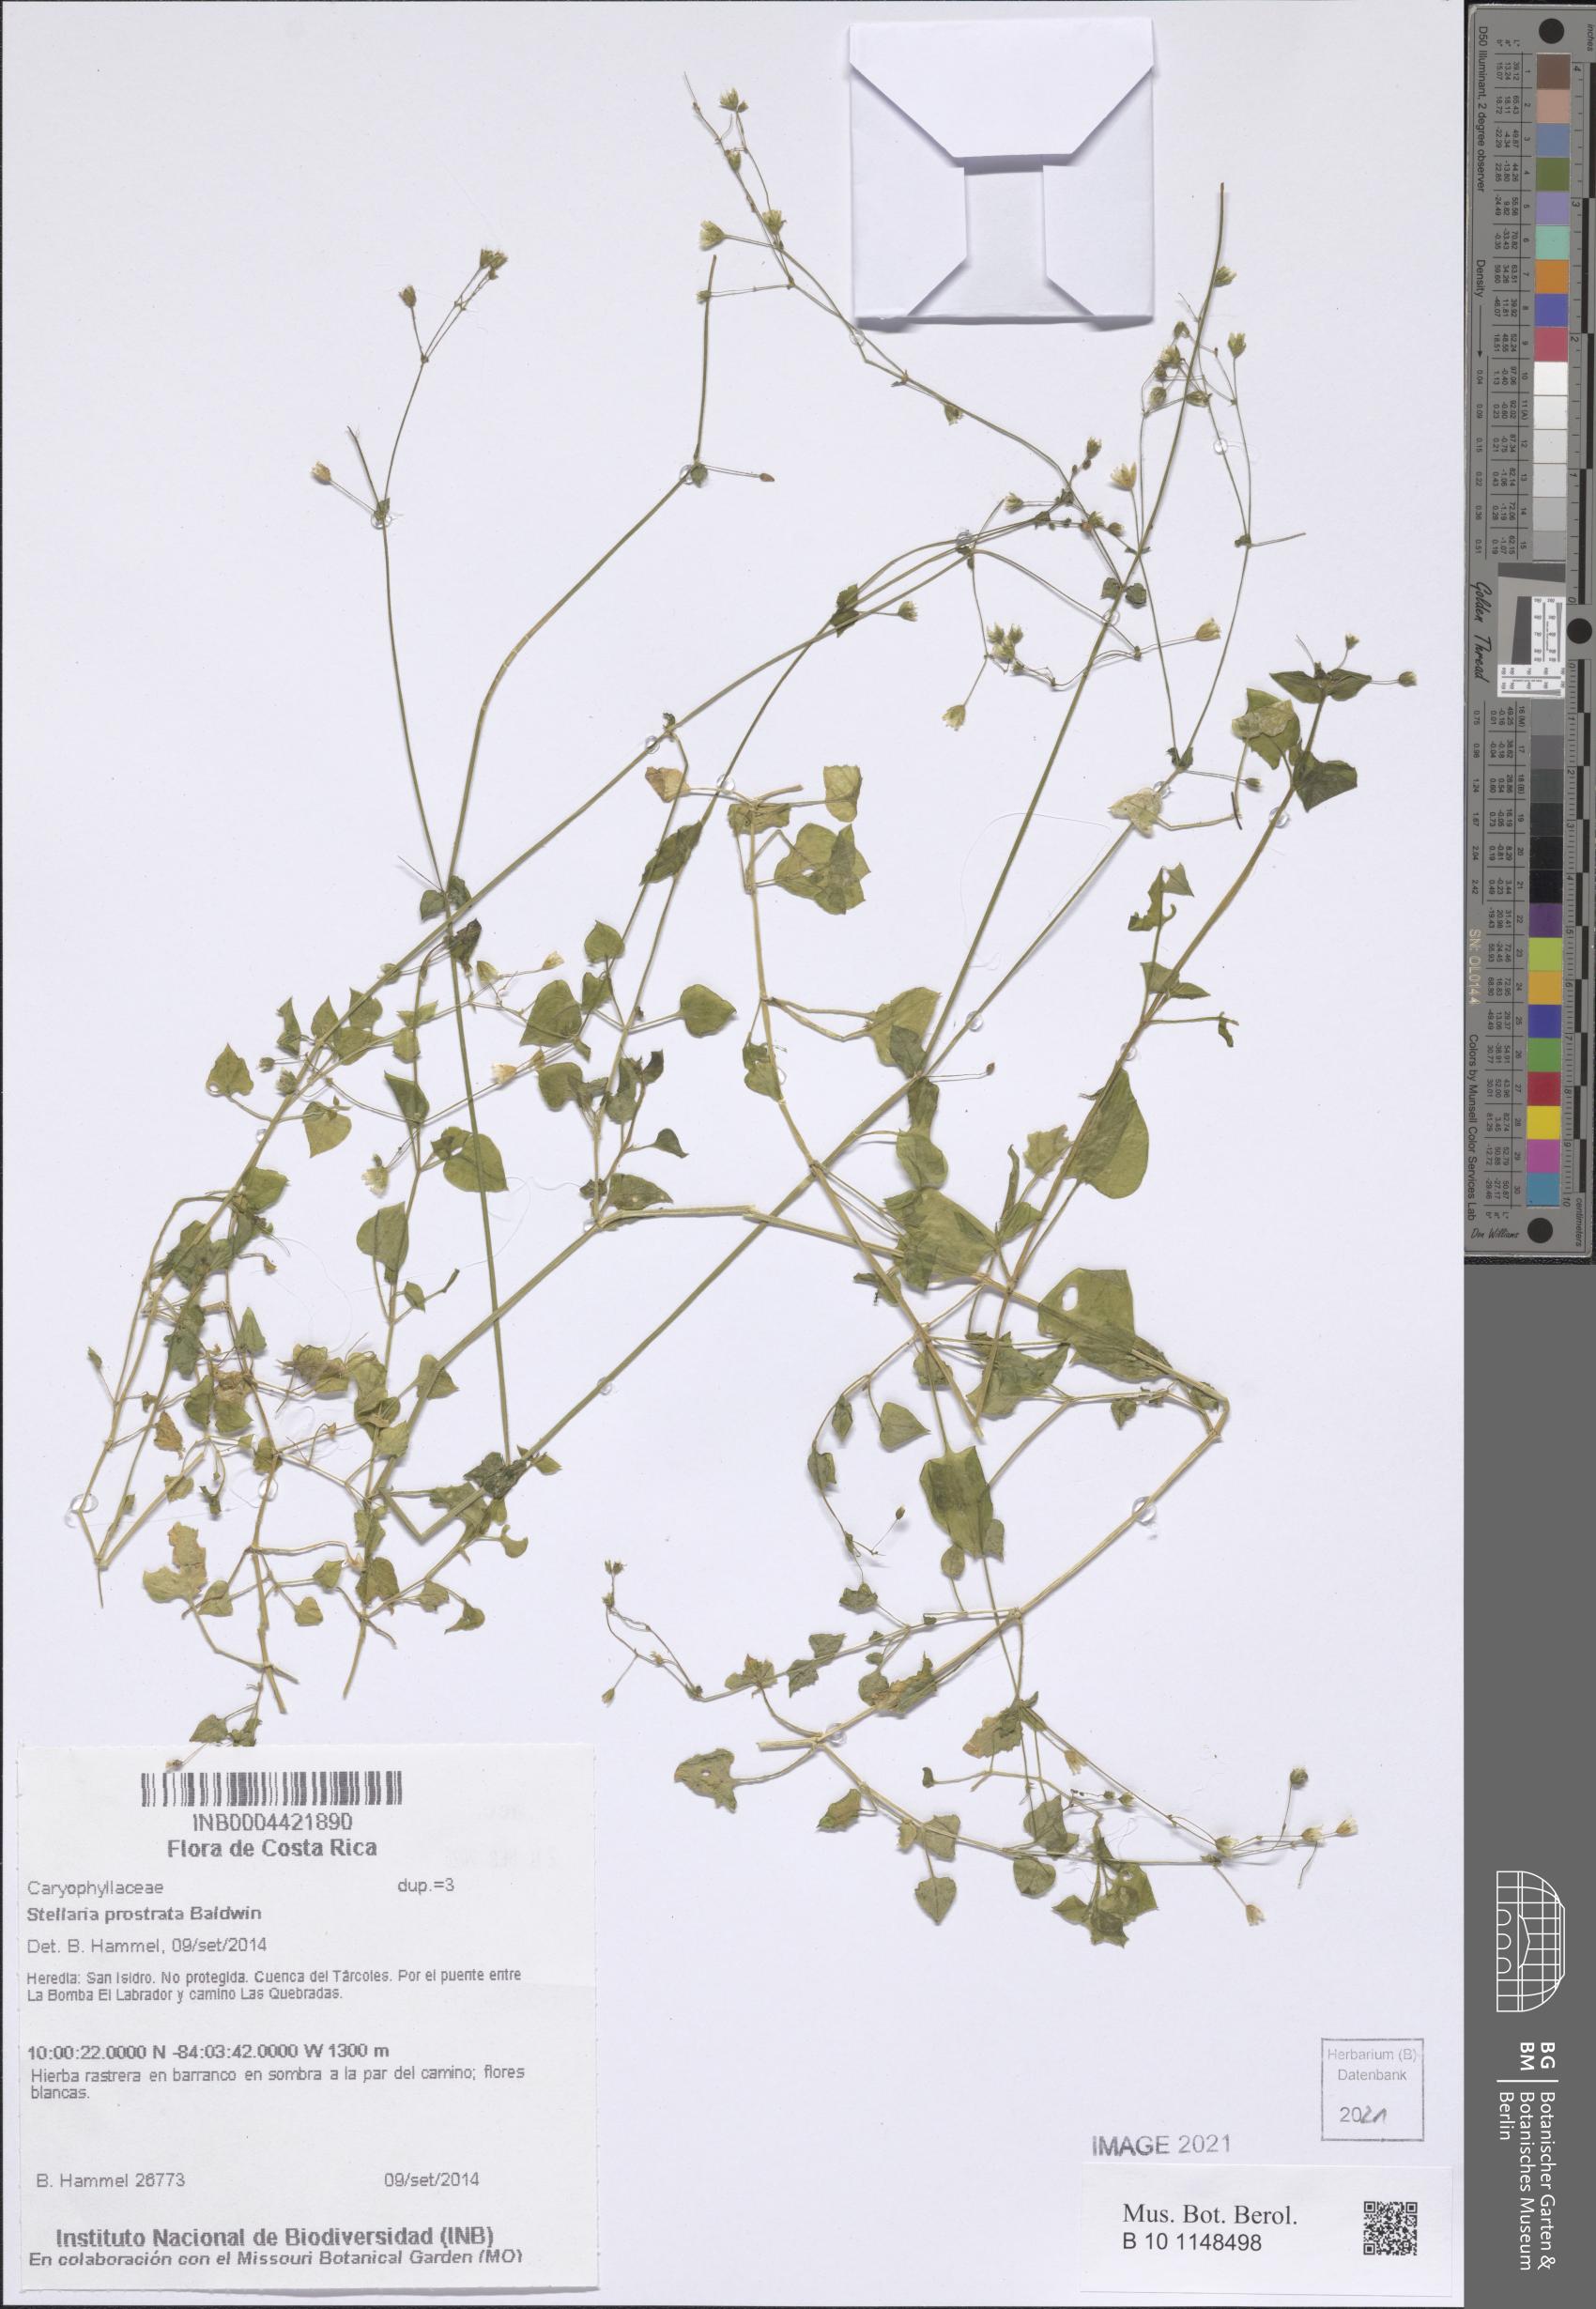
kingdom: Plantae
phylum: Tracheophyta
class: Magnoliopsida
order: Caryophyllales
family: Caryophyllaceae
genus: Stellaria
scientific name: Stellaria cuspidata
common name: Mexican chickweed
